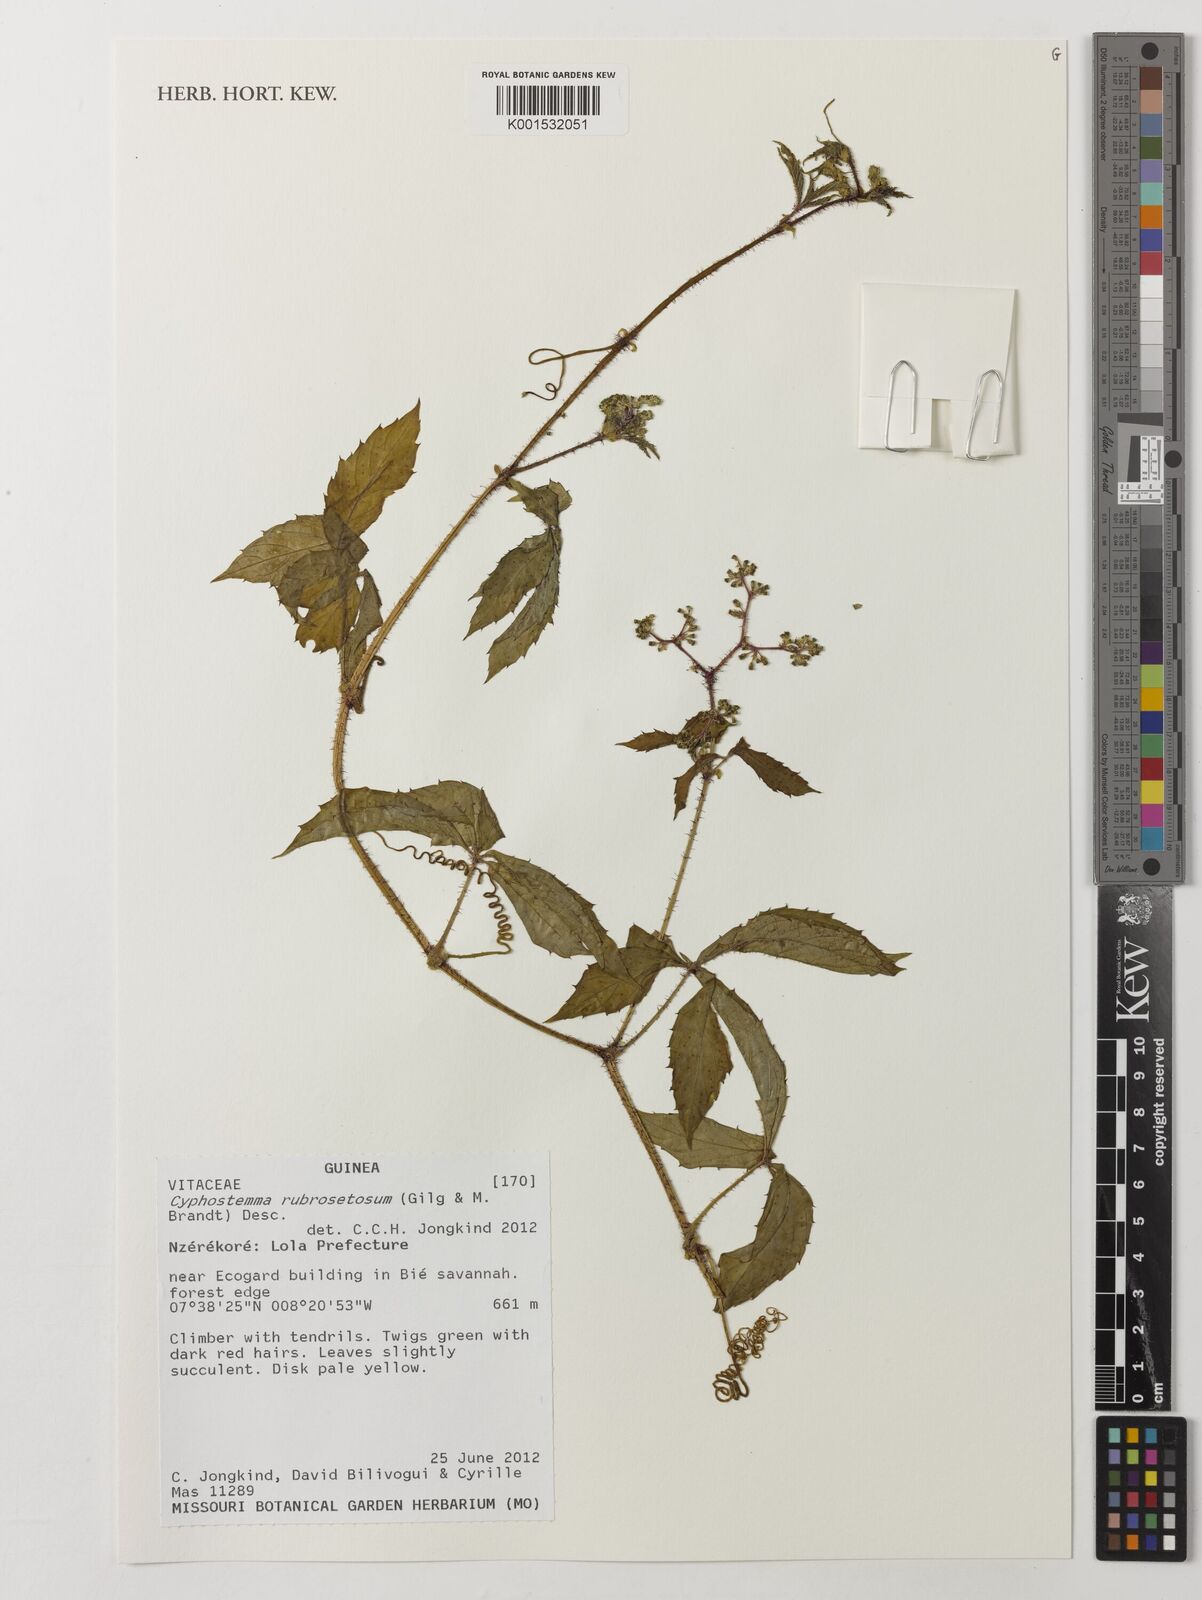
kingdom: Plantae
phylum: Tracheophyta
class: Magnoliopsida
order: Vitales
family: Vitaceae
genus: Cyphostemma
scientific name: Cyphostemma rubrosetosum
